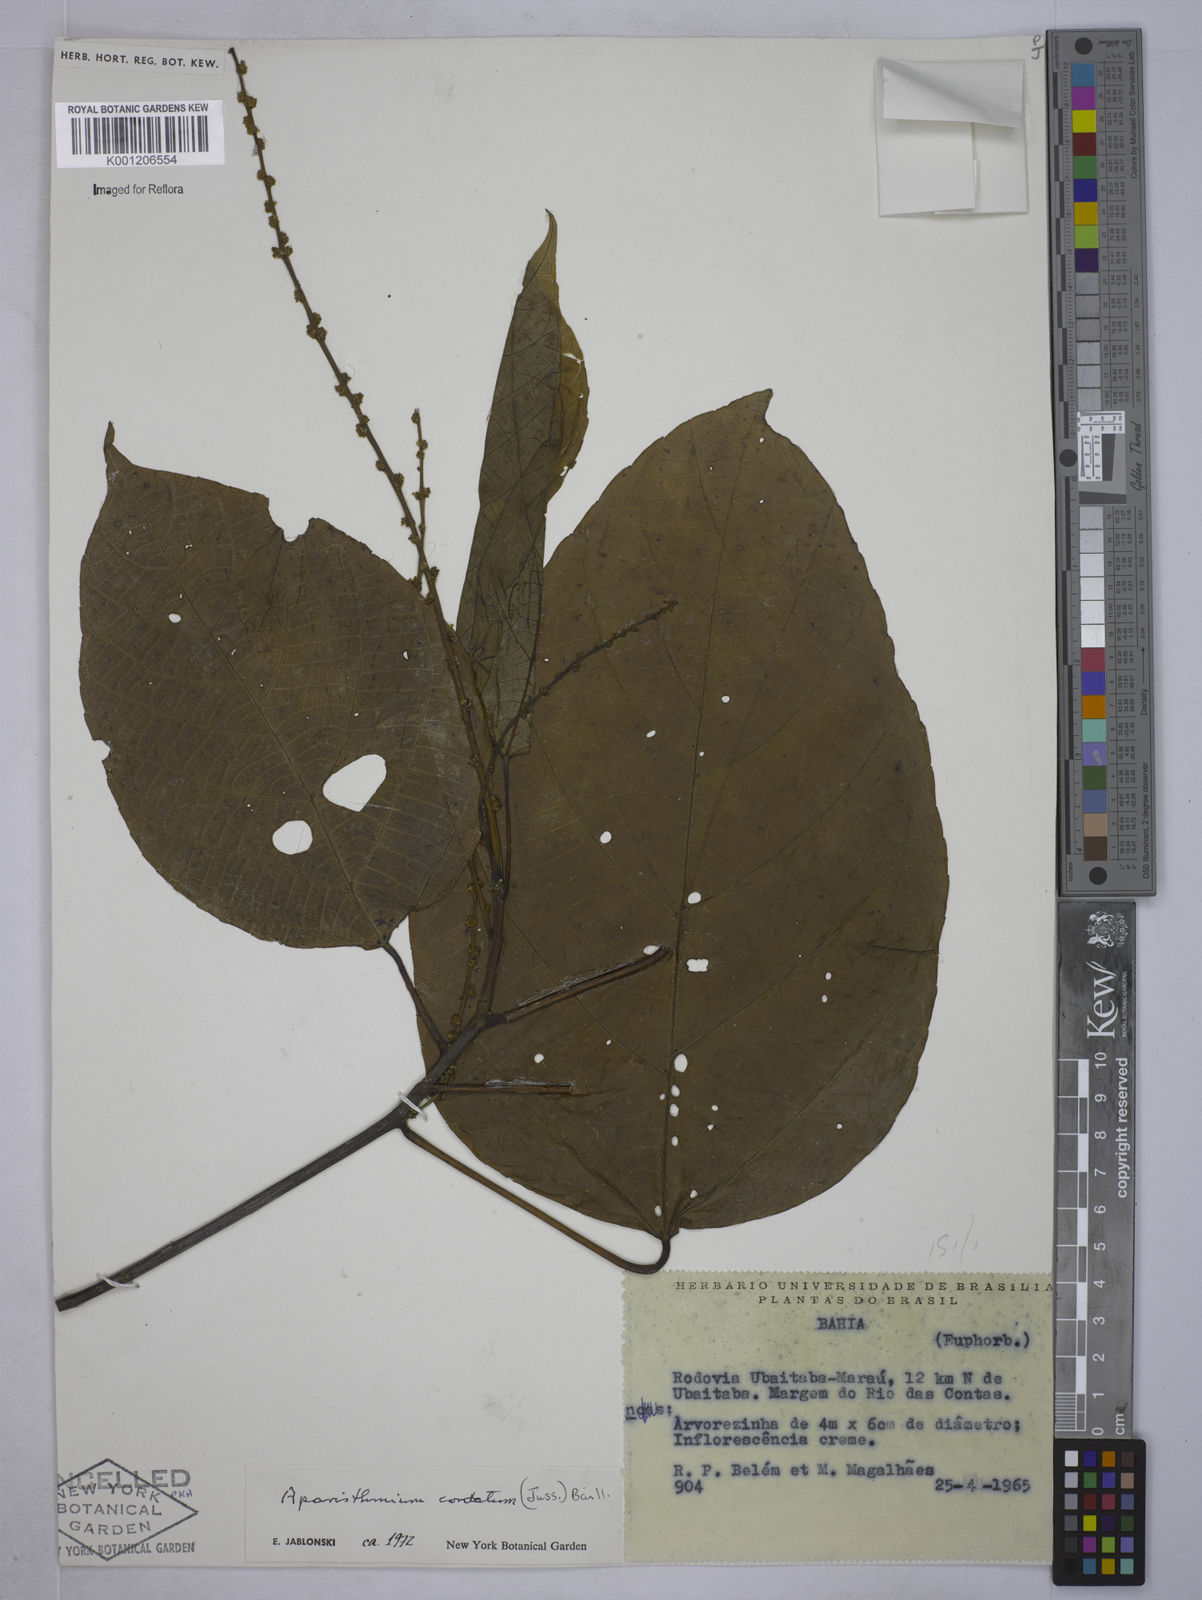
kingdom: Plantae
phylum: Tracheophyta
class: Magnoliopsida
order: Malpighiales
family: Euphorbiaceae
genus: Aparisthmium
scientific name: Aparisthmium cordatum
